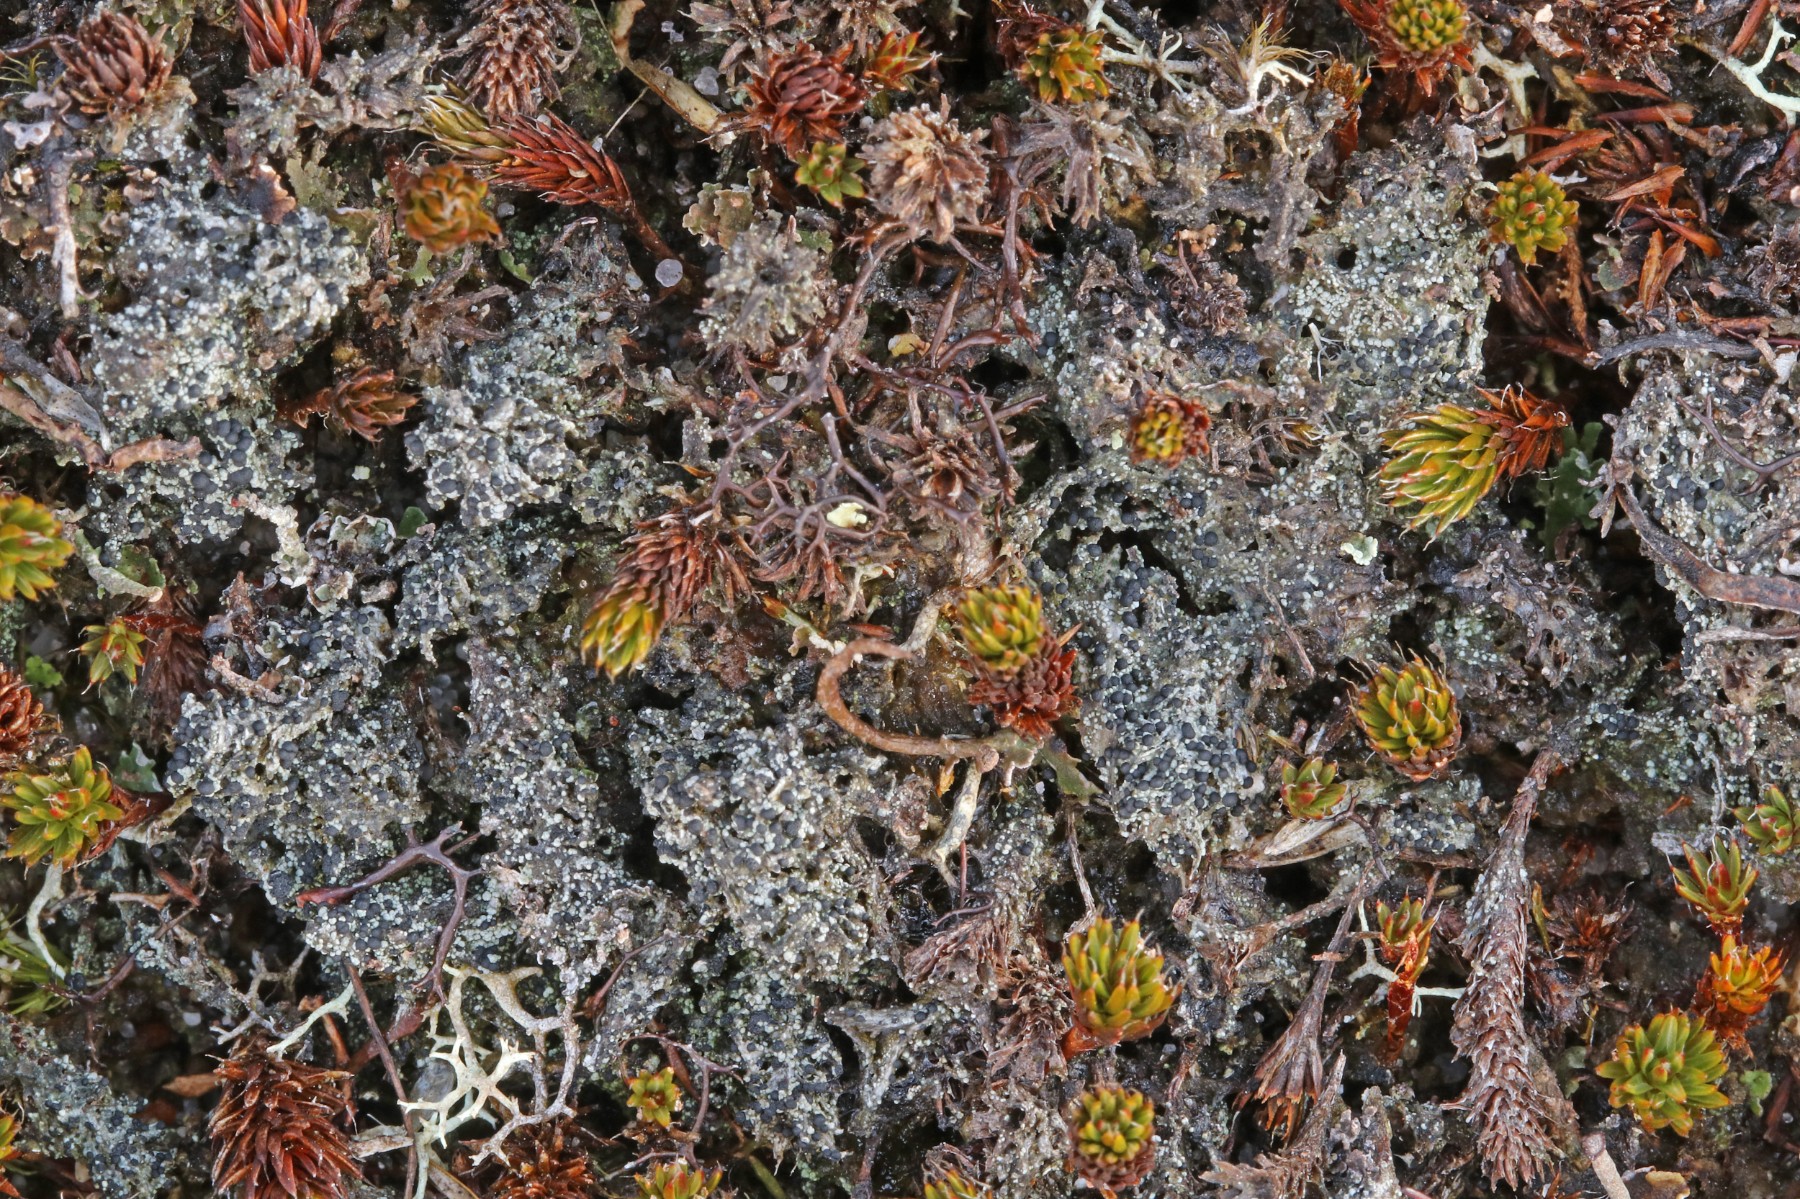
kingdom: Fungi
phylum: Ascomycota
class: Lecanoromycetes
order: Lecanorales
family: Byssolomataceae
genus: Micarea
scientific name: Micarea lignaria
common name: tørve-knaplav
